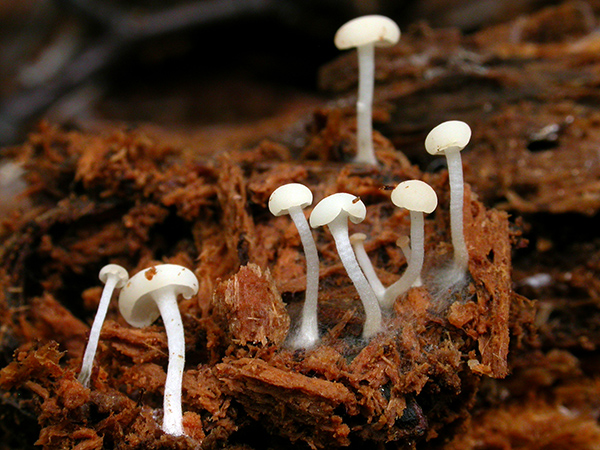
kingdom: Fungi
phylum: Ascomycota
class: Leotiomycetes
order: Helotiales
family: Tricladiaceae
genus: Cudoniella
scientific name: Cudoniella acicularis
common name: ege-dyndskive
